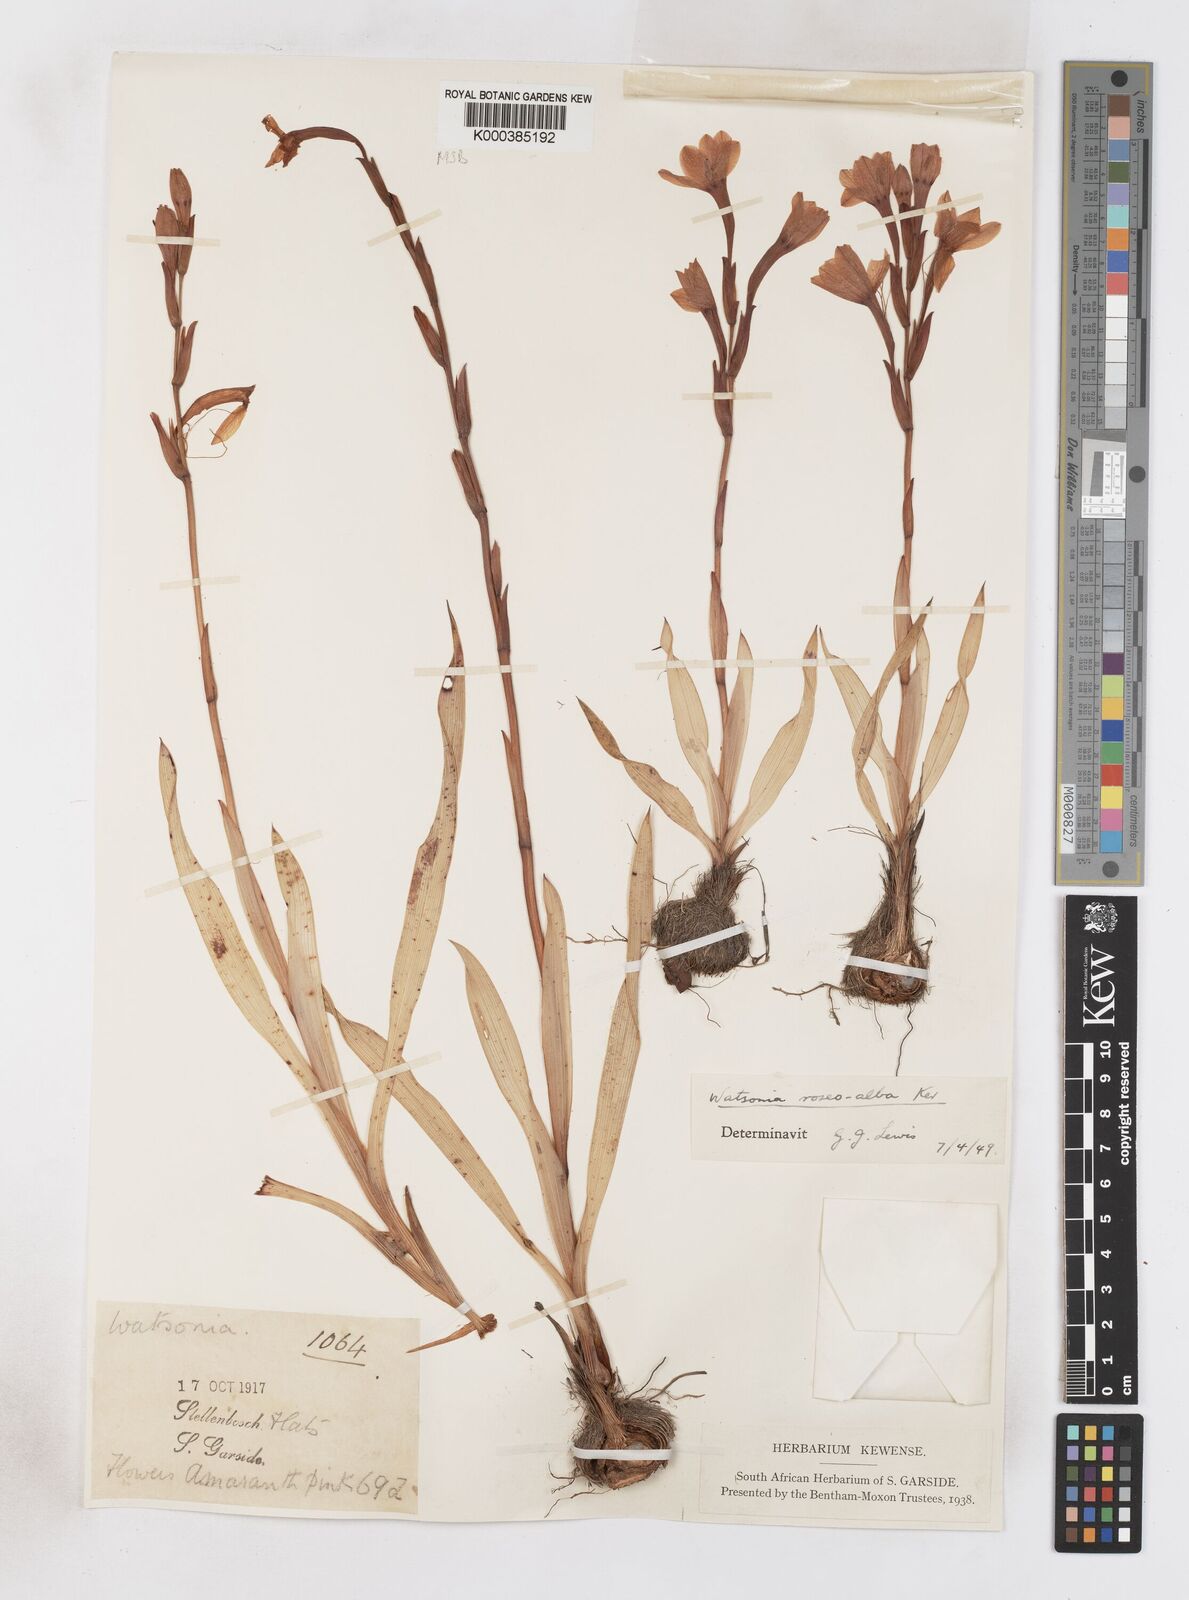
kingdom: Plantae
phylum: Tracheophyta
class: Liliopsida
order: Asparagales
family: Iridaceae
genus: Watsonia
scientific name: Watsonia humilis
